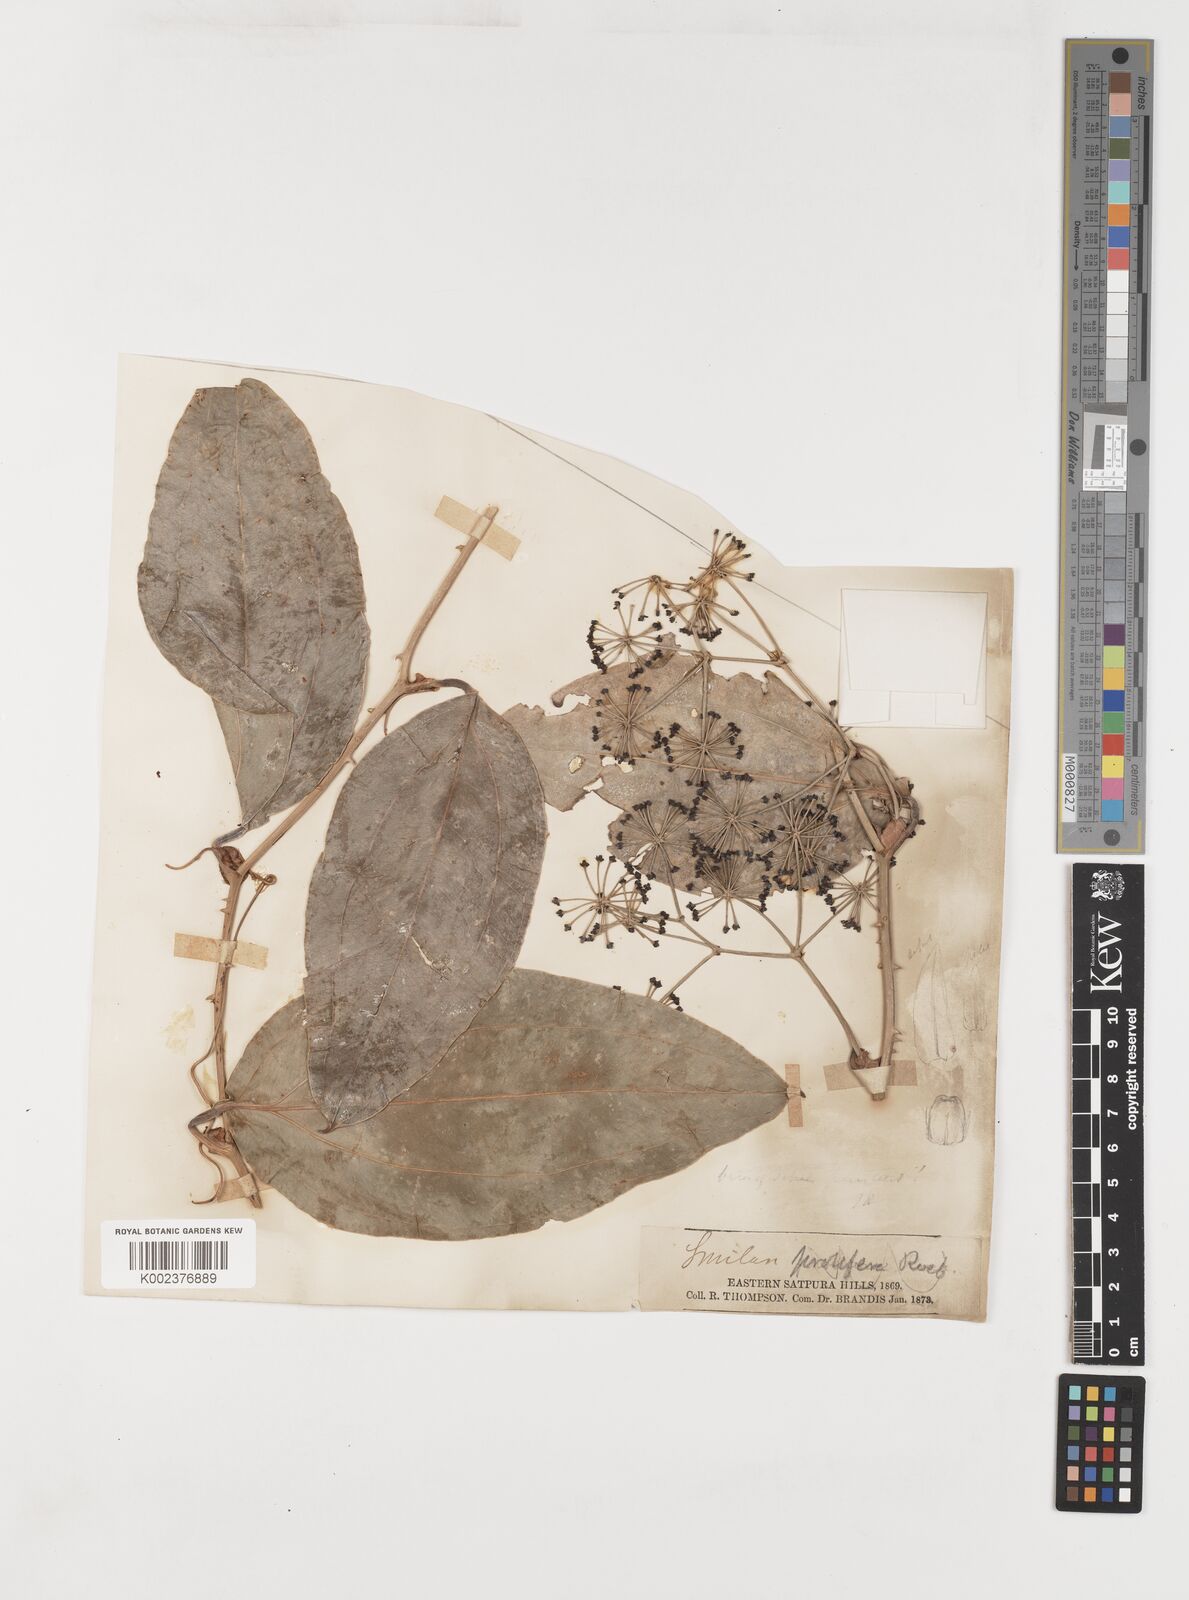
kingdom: Plantae
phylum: Tracheophyta
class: Liliopsida
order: Liliales
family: Smilacaceae
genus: Smilax
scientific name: Smilax prolifera
